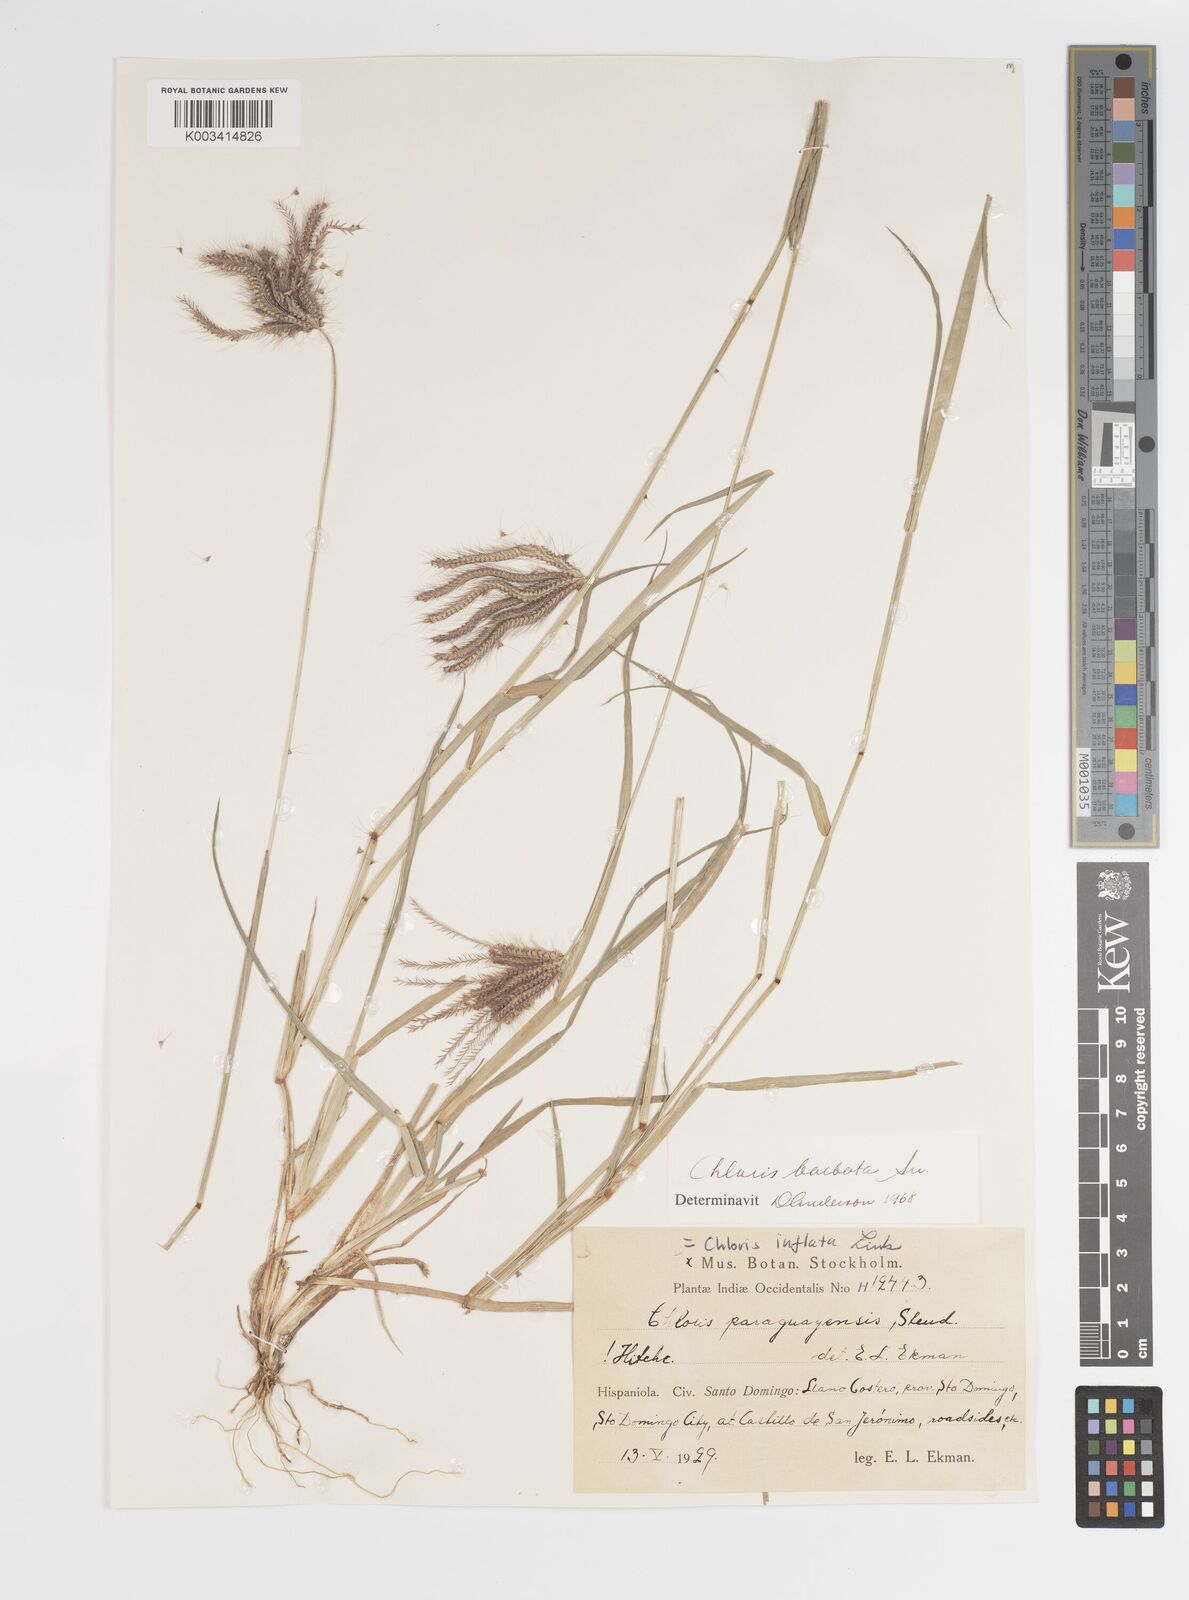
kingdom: Plantae
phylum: Tracheophyta
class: Liliopsida
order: Poales
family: Poaceae
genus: Chloris
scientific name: Chloris barbata
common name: Swollen fingergrass
